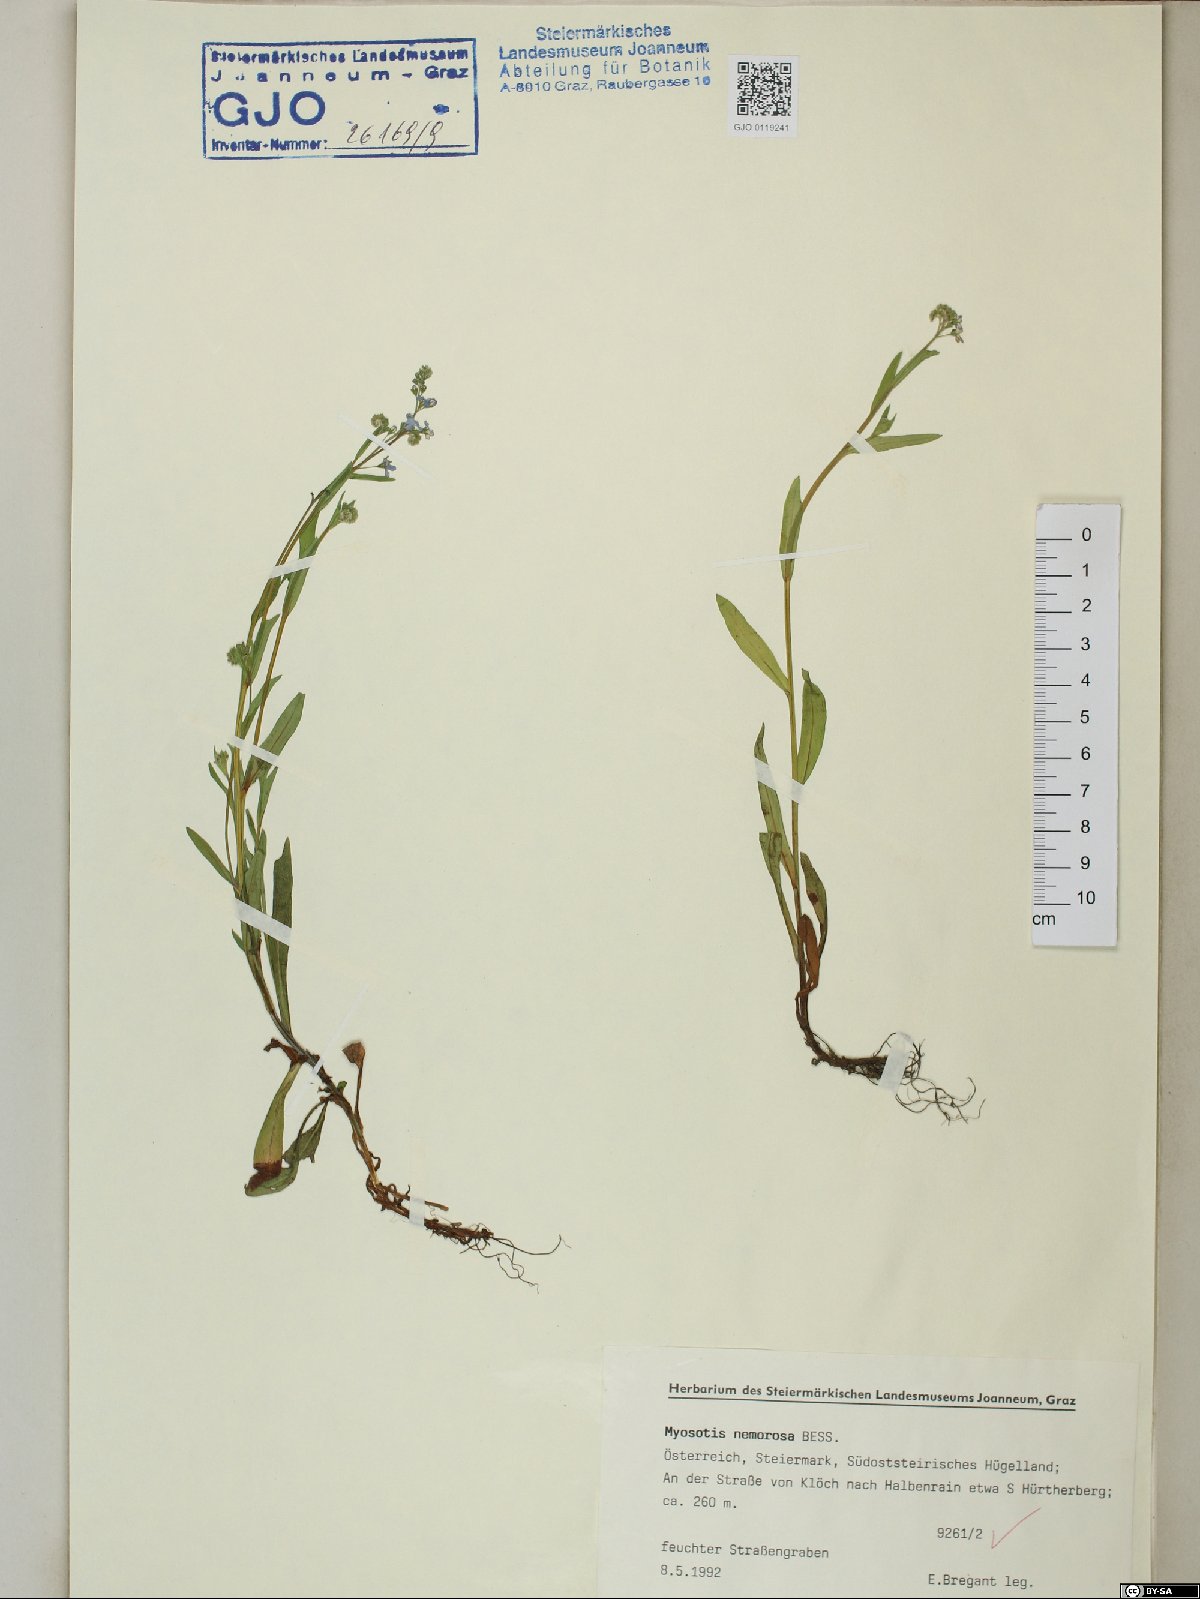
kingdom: Plantae
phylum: Tracheophyta
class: Magnoliopsida
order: Boraginales
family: Boraginaceae
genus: Myosotis
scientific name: Myosotis nemorosa
